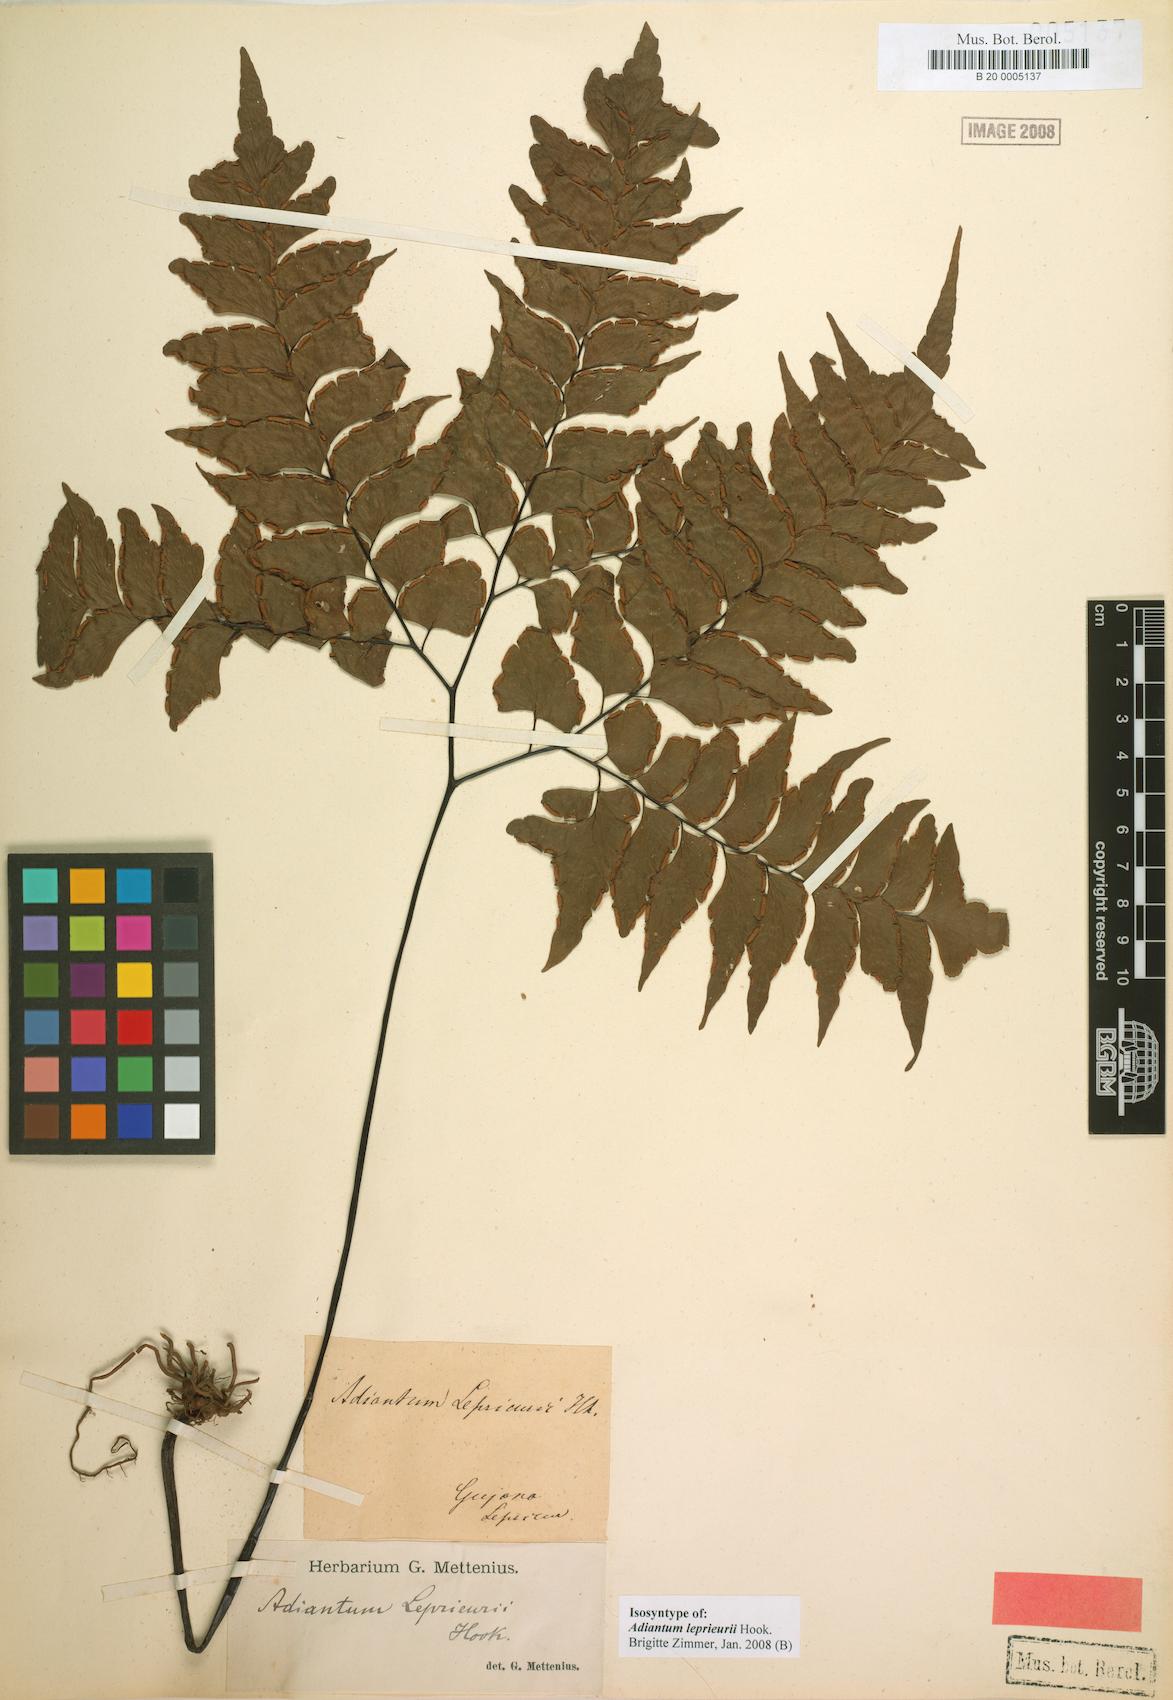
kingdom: Plantae
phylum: Tracheophyta
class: Polypodiopsida
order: Polypodiales
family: Pteridaceae
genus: Adiantum
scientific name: Adiantum leprieurii
